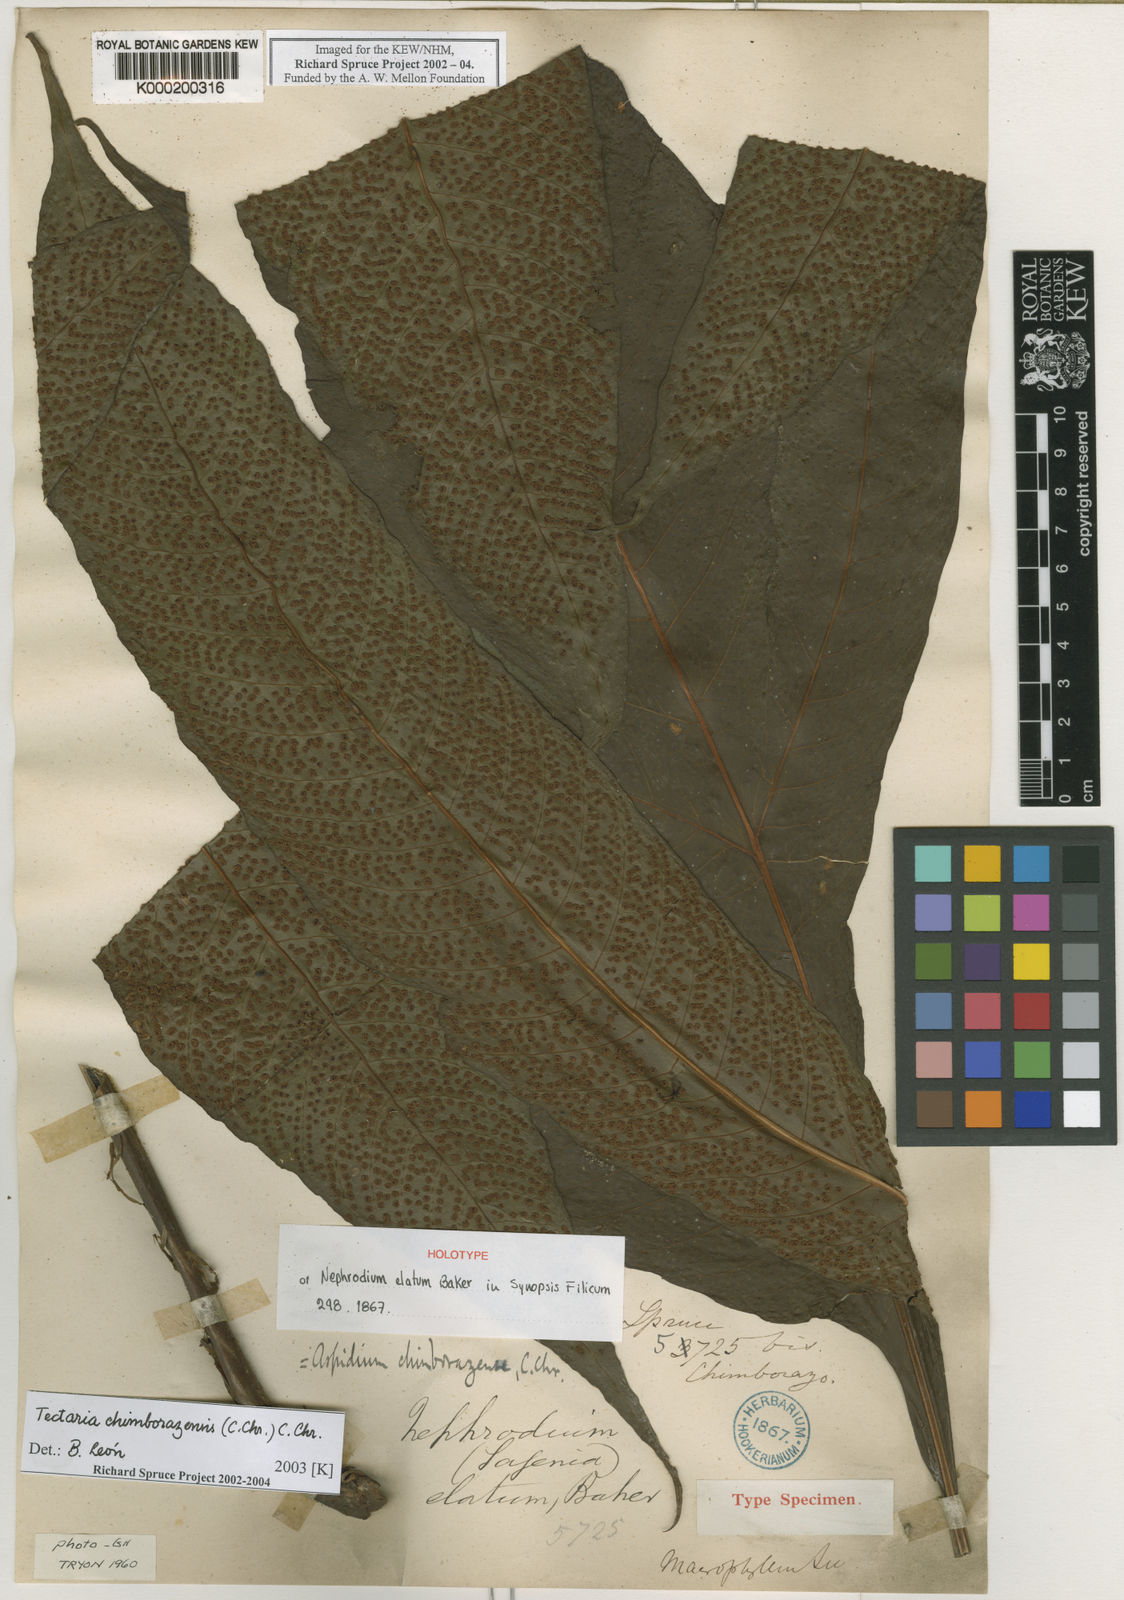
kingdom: Plantae
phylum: Tracheophyta
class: Polypodiopsida
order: Polypodiales
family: Tectariaceae
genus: Tectaria
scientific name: Tectaria
